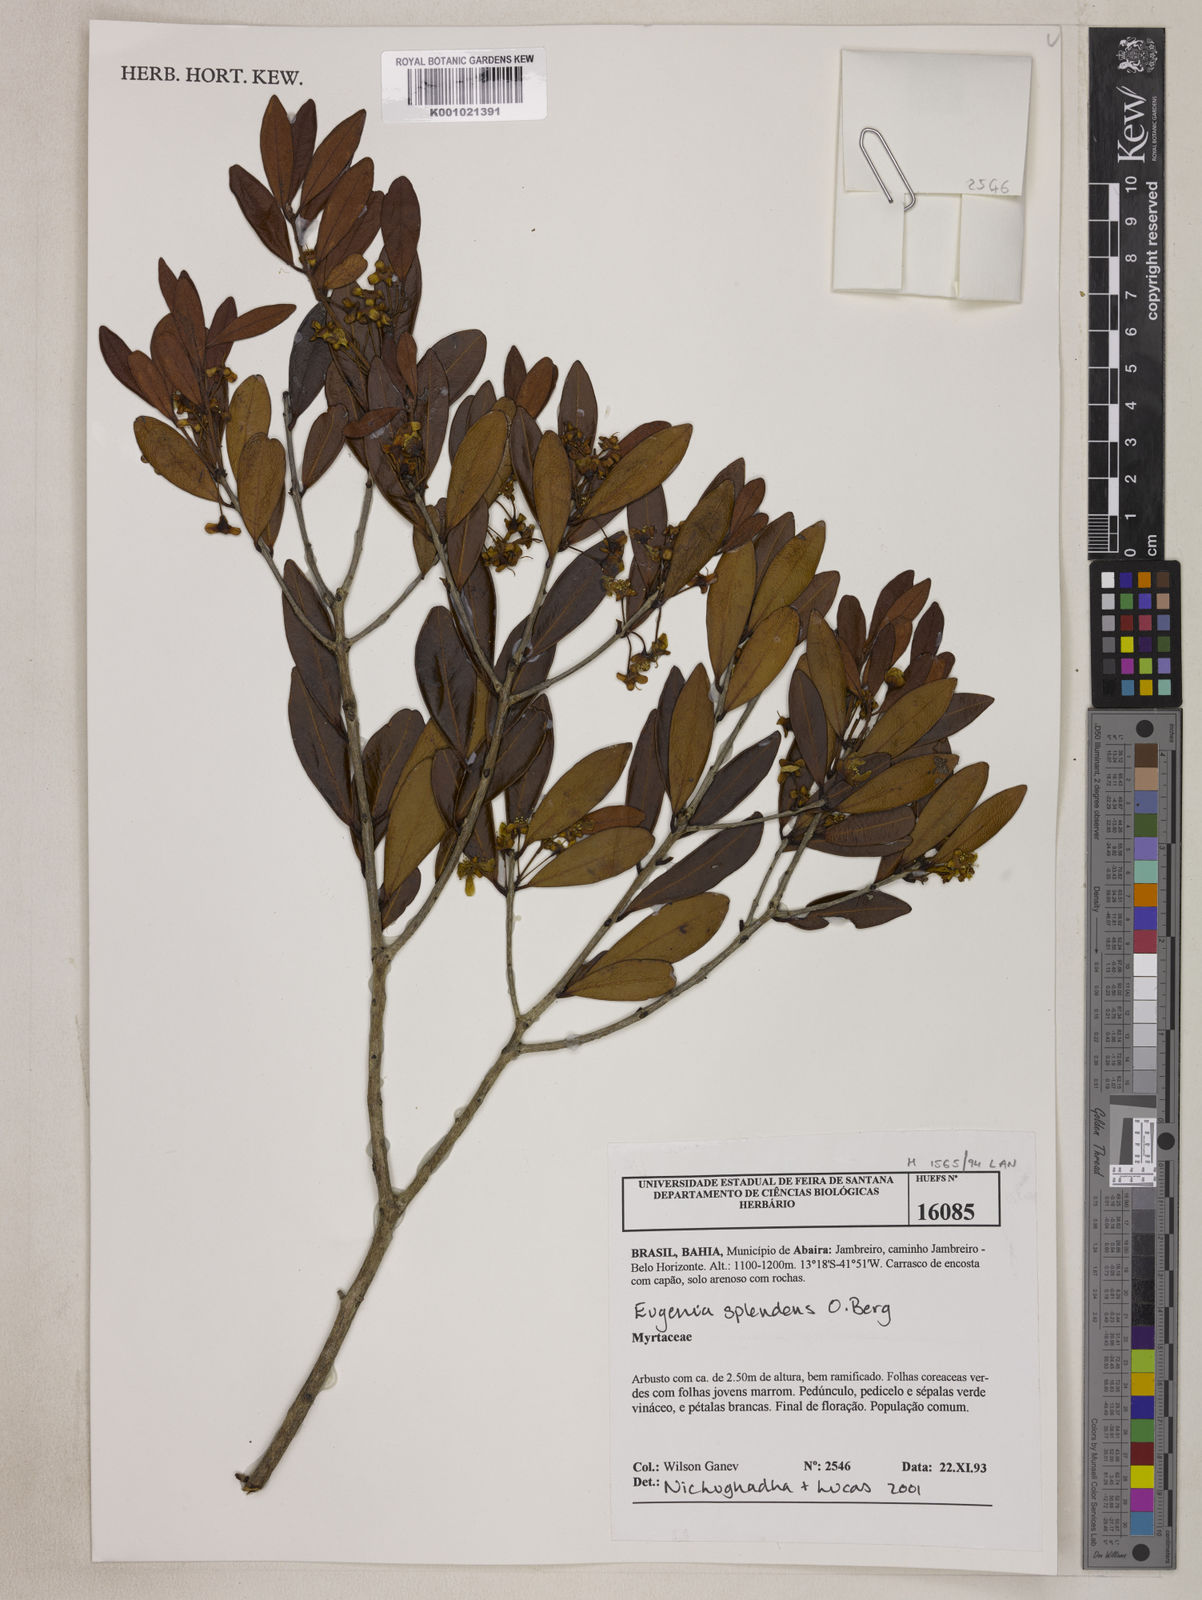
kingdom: Plantae
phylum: Tracheophyta
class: Magnoliopsida
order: Myrtales
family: Myrtaceae
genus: Eugenia
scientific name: Eugenia splendens
